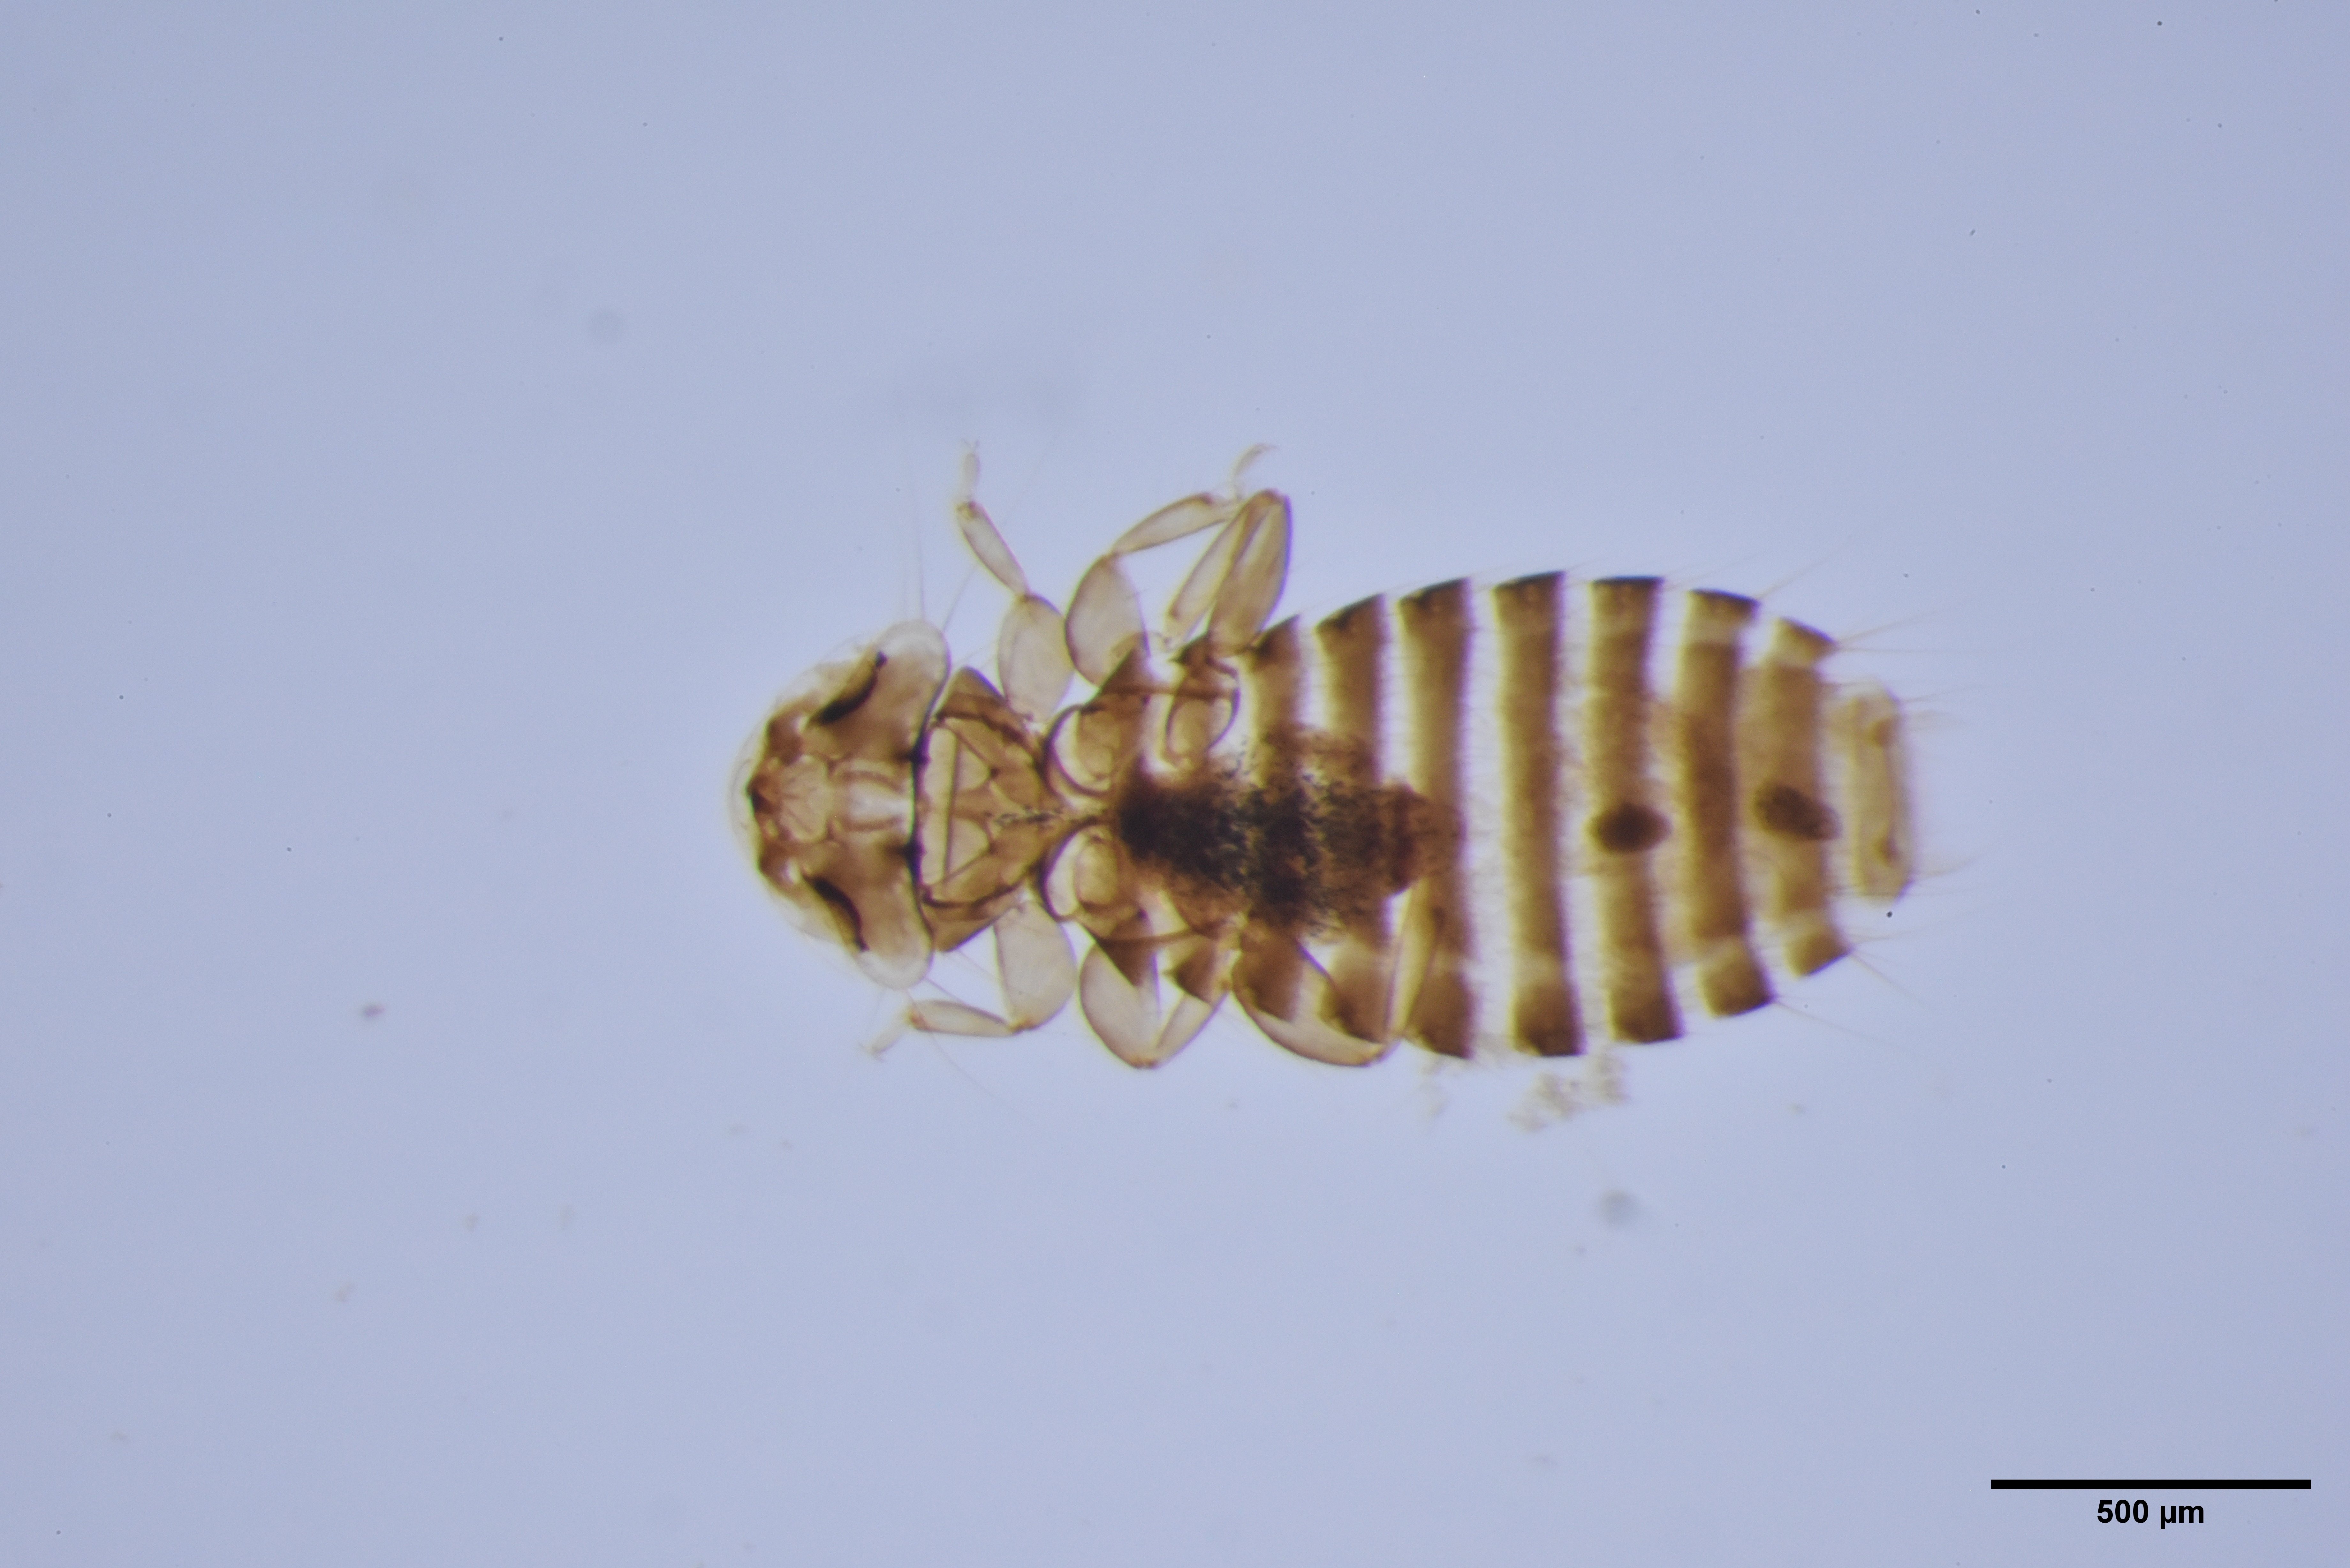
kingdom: Animalia
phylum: Arthropoda
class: Insecta
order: Psocodea
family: Ancistronidae
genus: Austromenopon
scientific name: Austromenopon squatarolae
